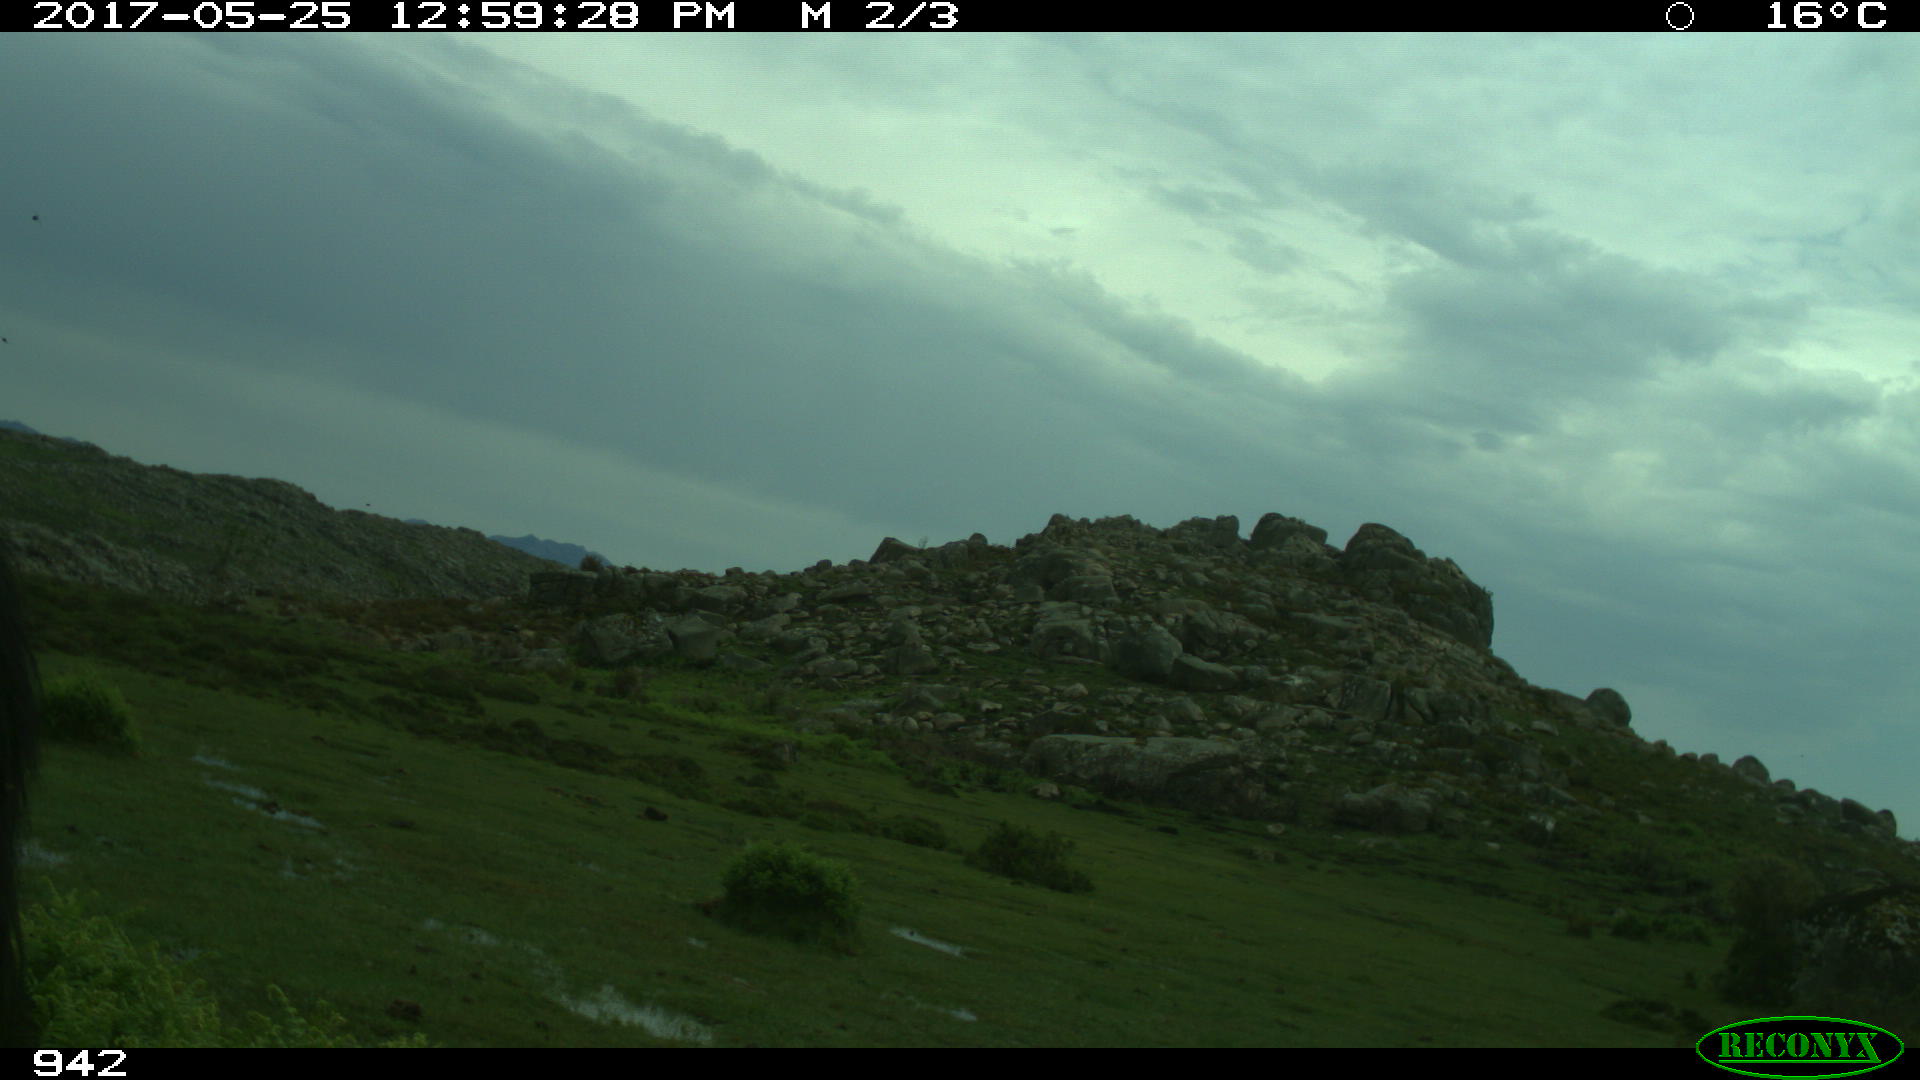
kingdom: Animalia
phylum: Chordata
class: Mammalia
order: Perissodactyla
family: Equidae
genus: Equus
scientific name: Equus caballus
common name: Horse
